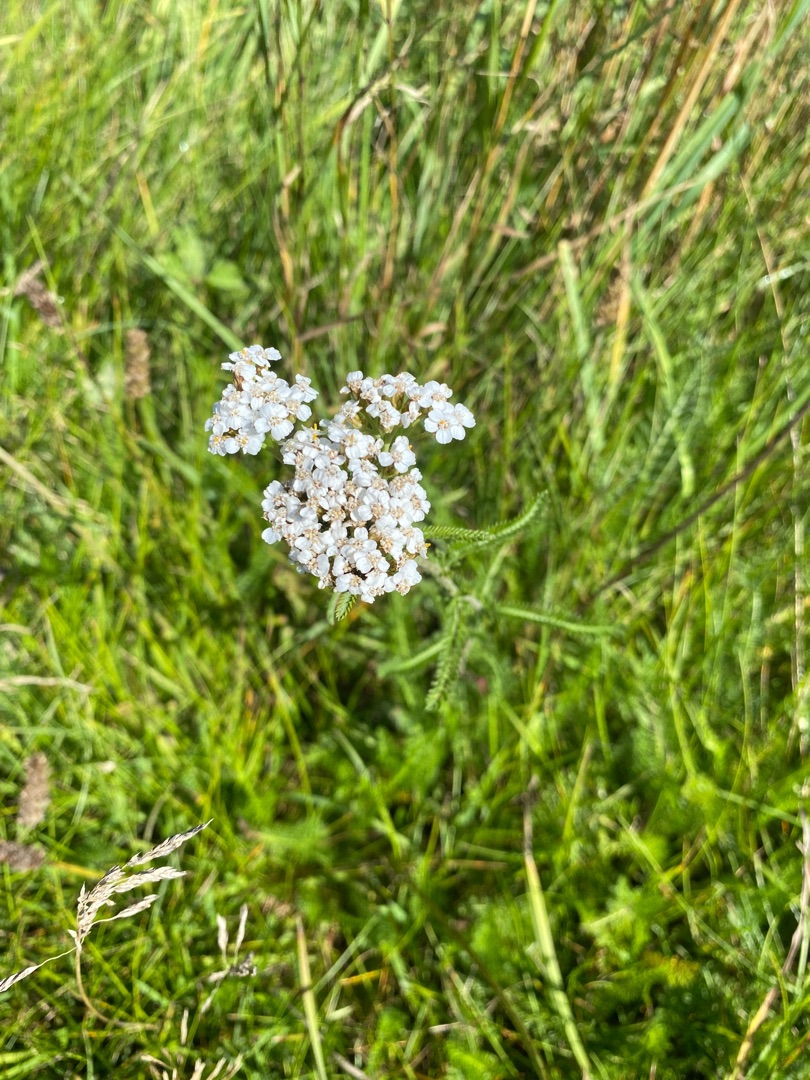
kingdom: Plantae
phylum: Tracheophyta
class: Magnoliopsida
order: Asterales
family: Asteraceae
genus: Achillea
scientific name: Achillea millefolium
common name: Almindelig røllike
